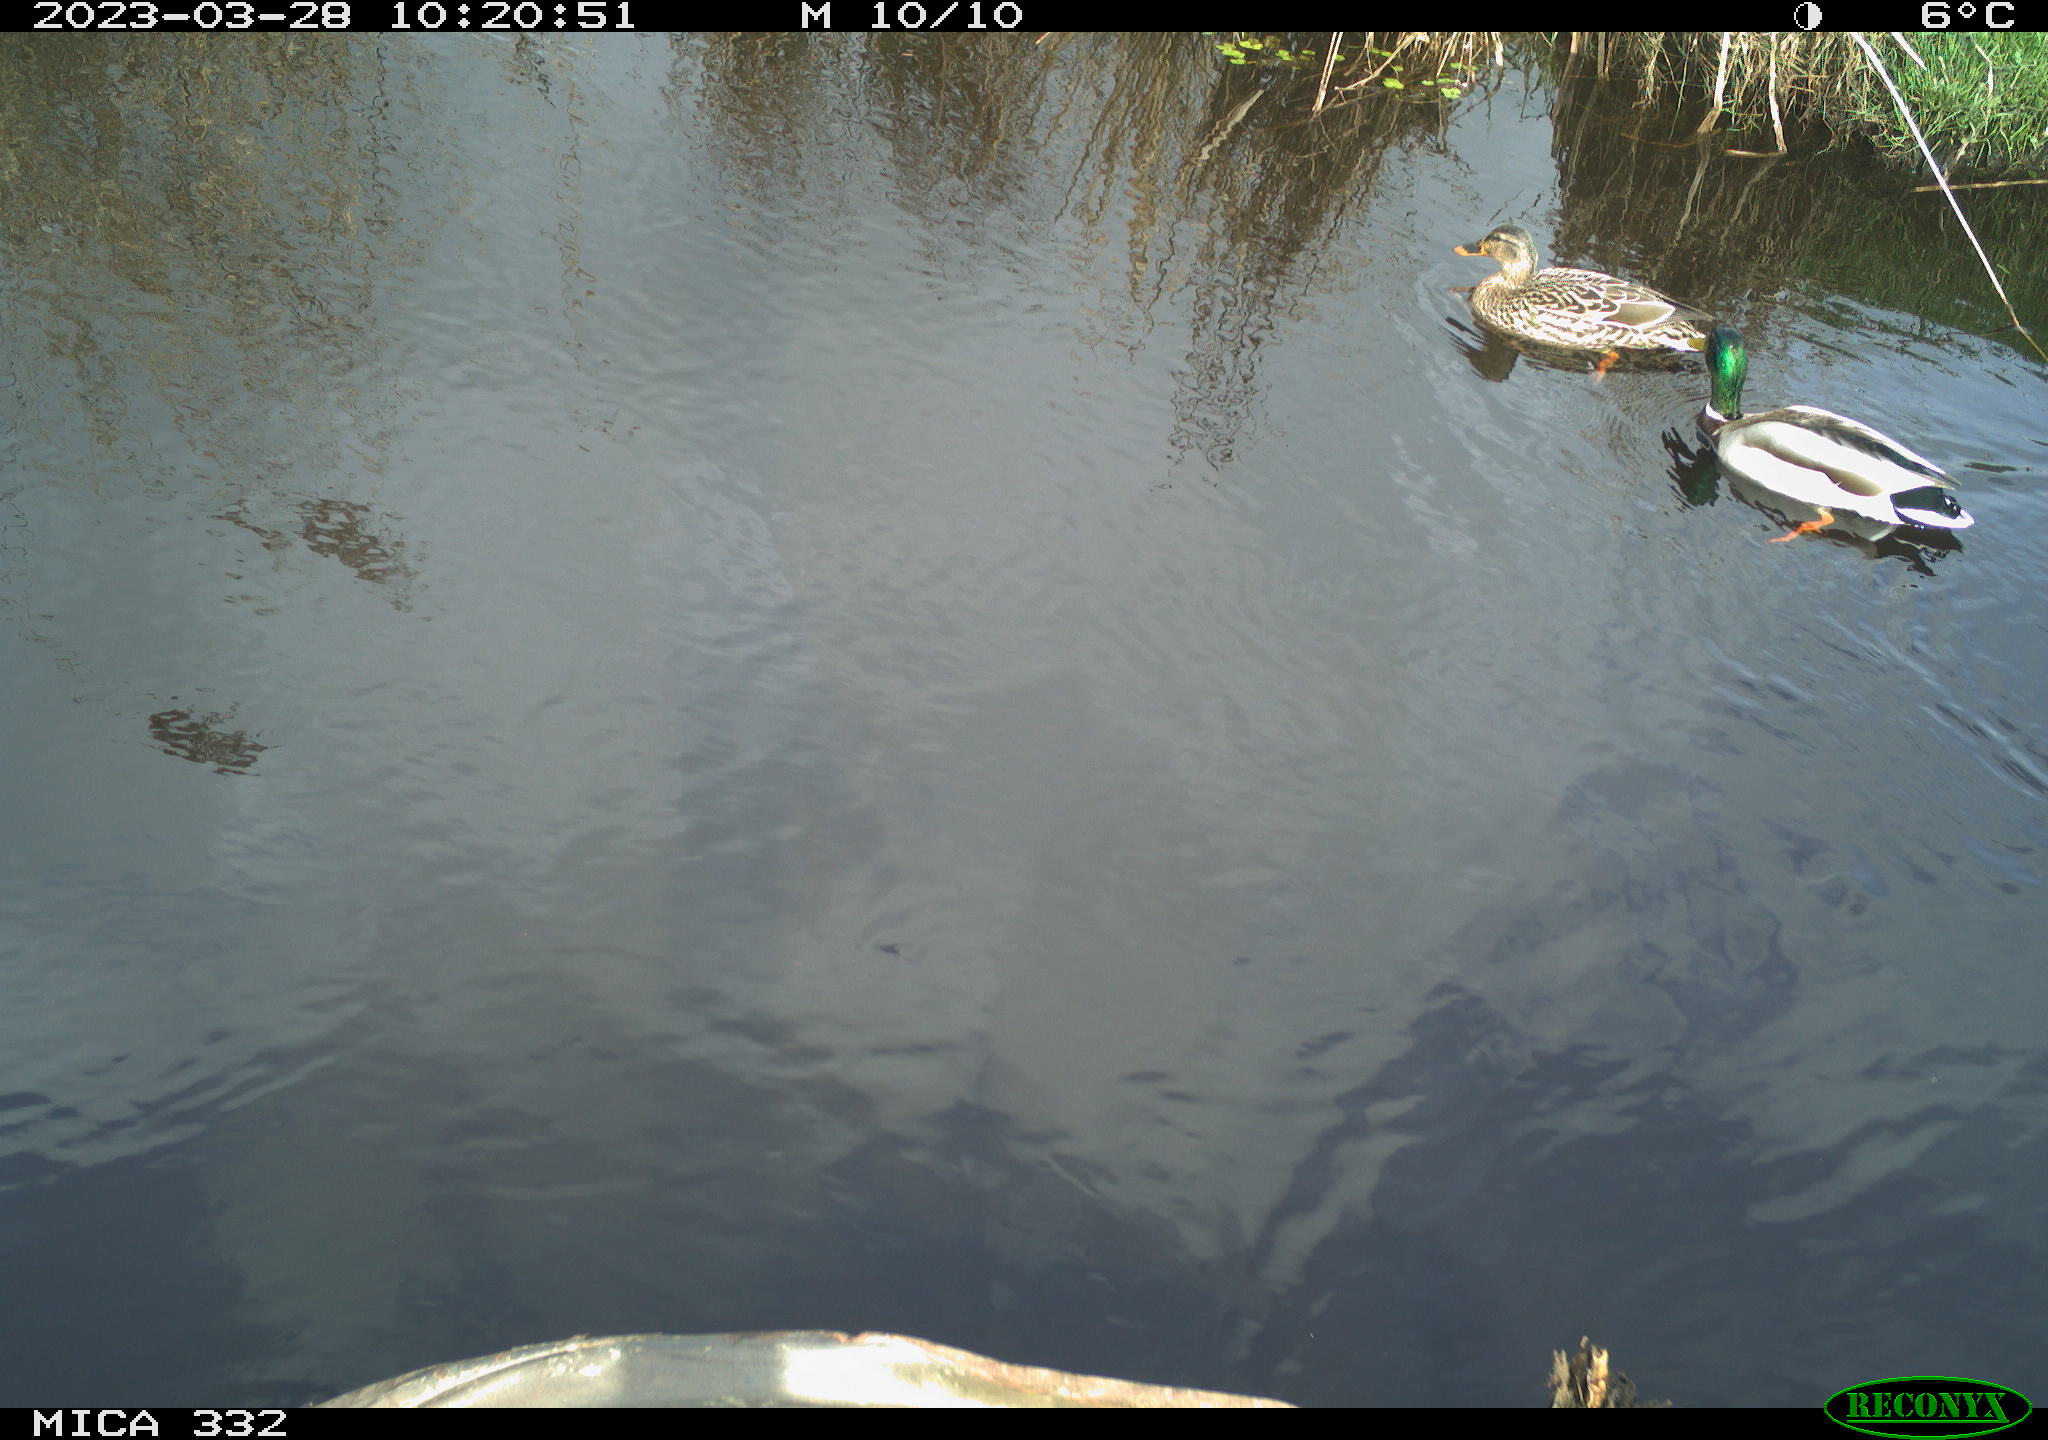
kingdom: Animalia
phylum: Chordata
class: Aves
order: Anseriformes
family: Anatidae
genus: Anas
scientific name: Anas
